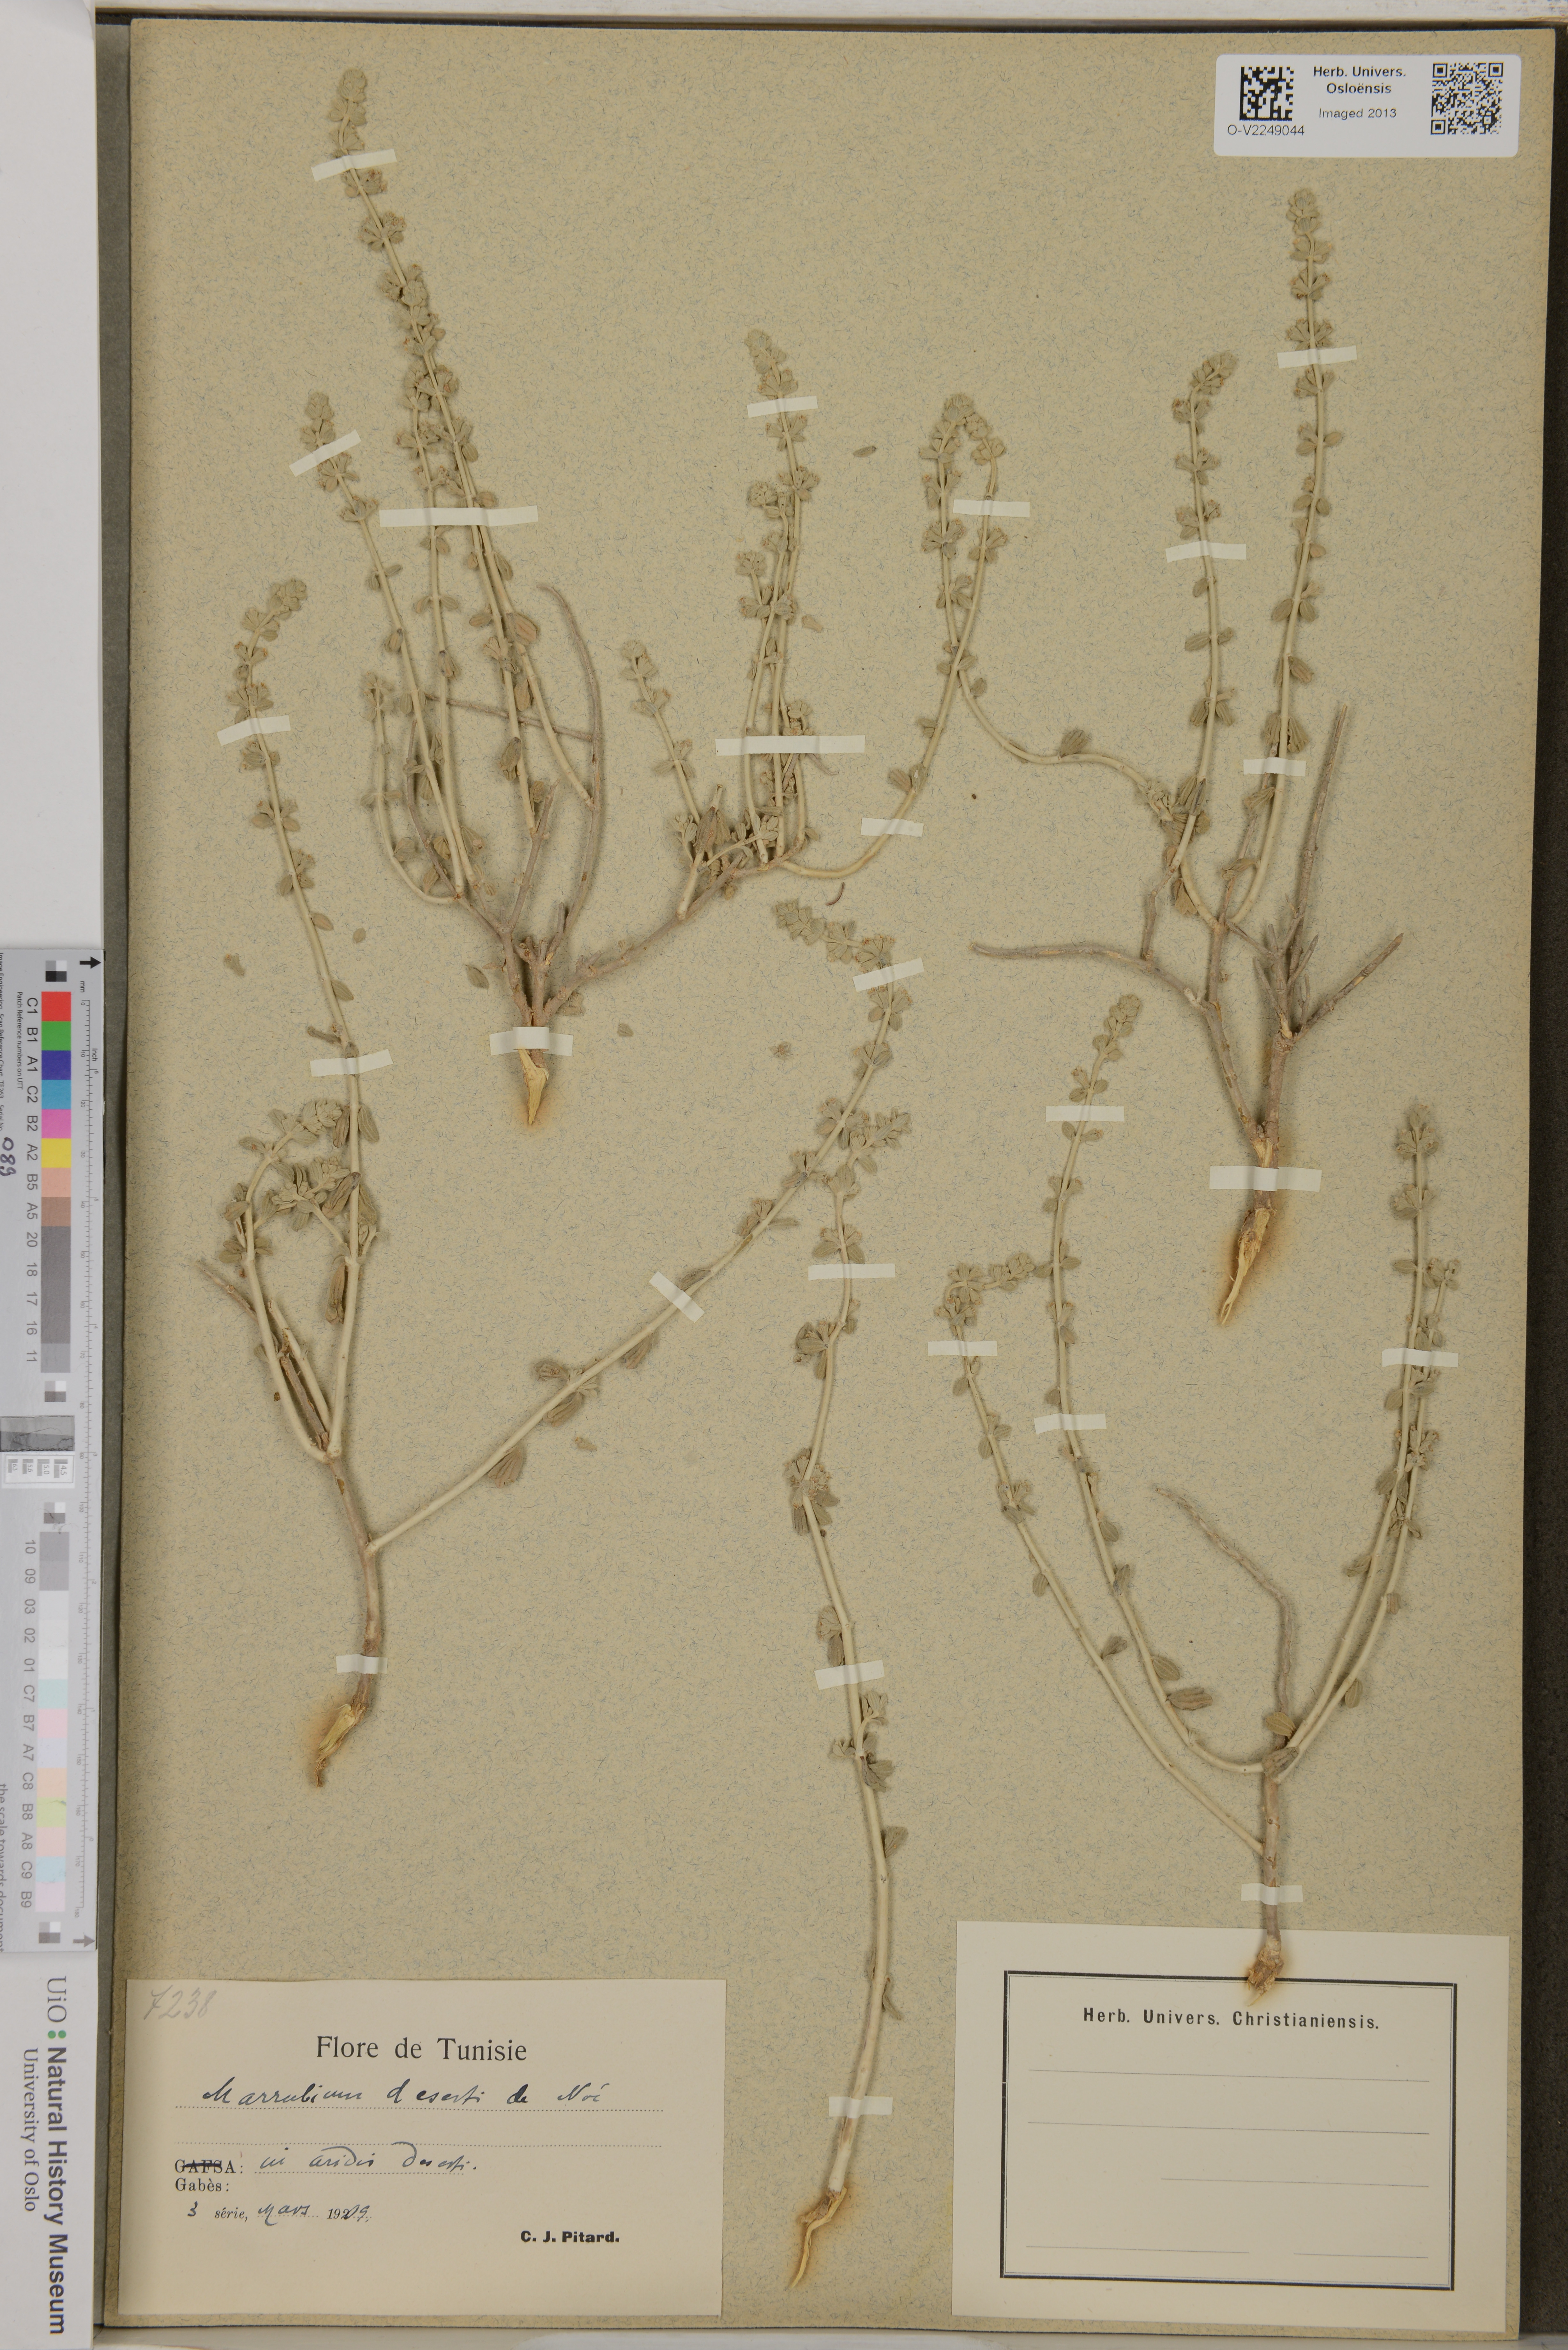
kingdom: Plantae
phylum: Tracheophyta
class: Magnoliopsida
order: Lamiales
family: Lamiaceae
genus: Marrubium
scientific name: Marrubium deserti
